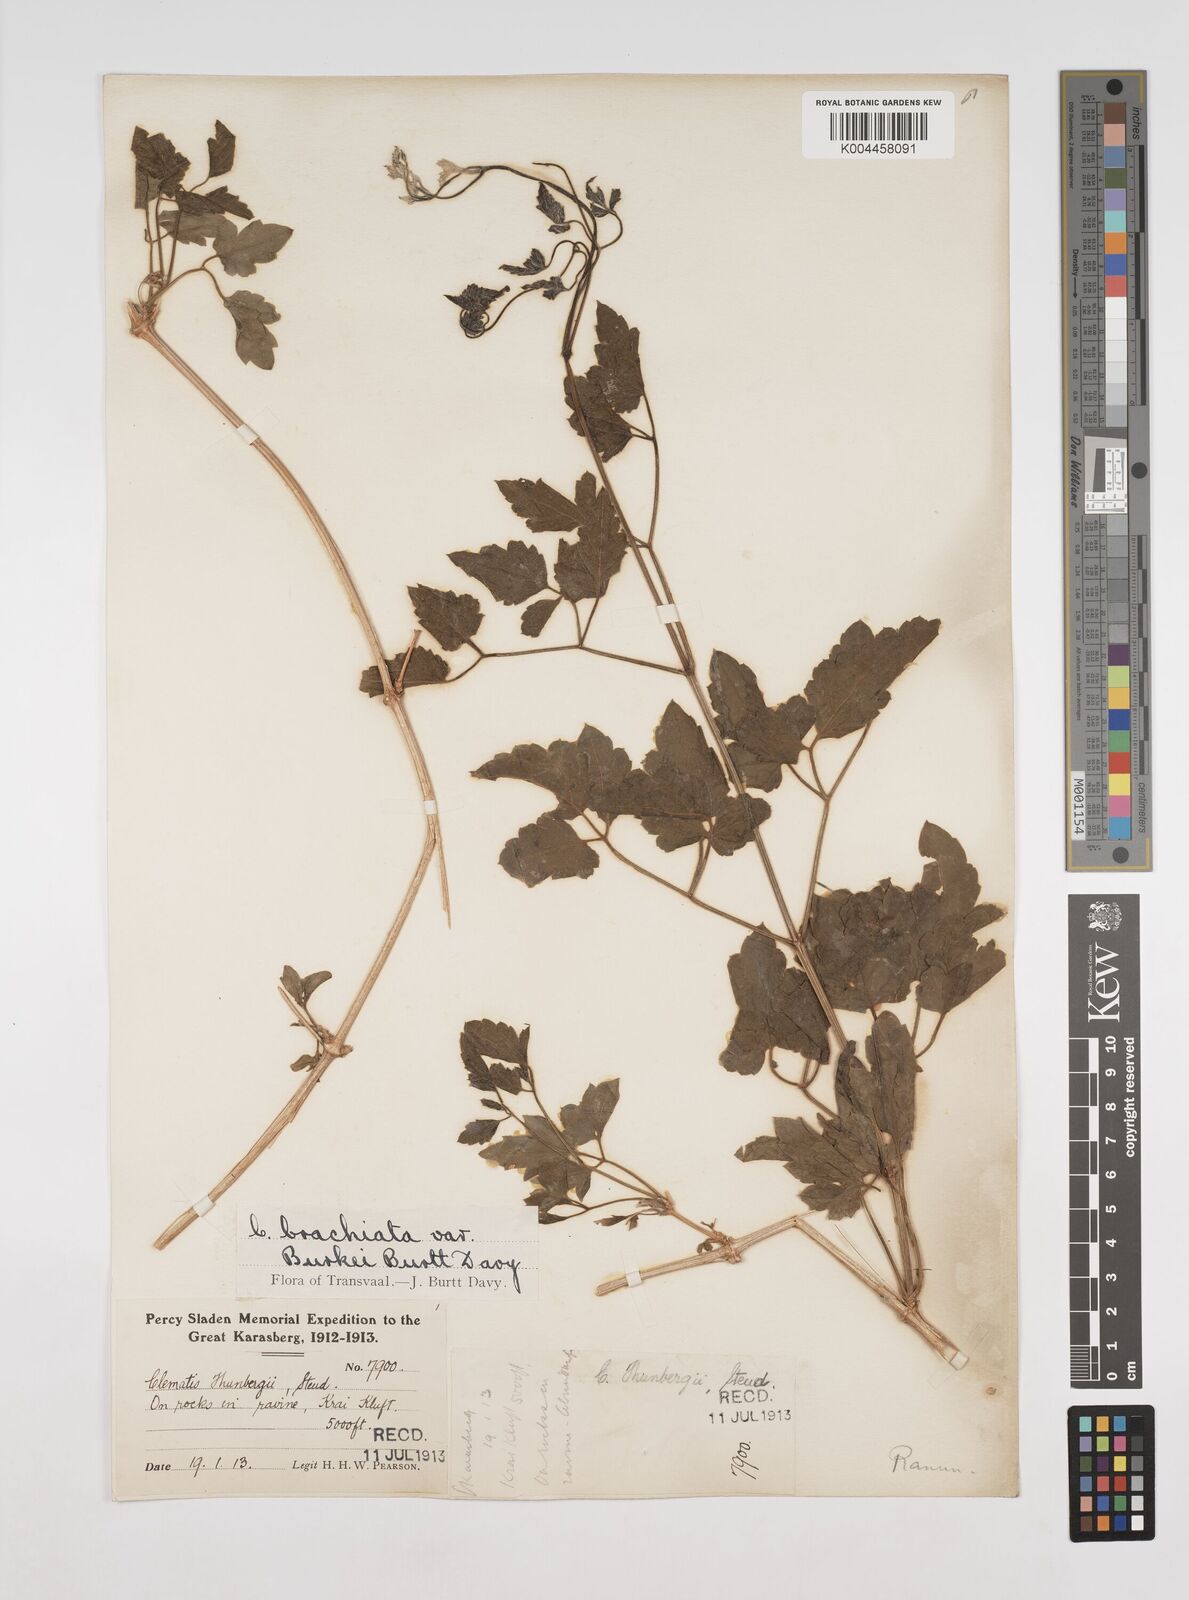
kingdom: Plantae
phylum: Tracheophyta
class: Magnoliopsida
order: Ranunculales
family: Ranunculaceae
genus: Clematis
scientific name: Clematis brachiata
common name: Traveler's-joy
